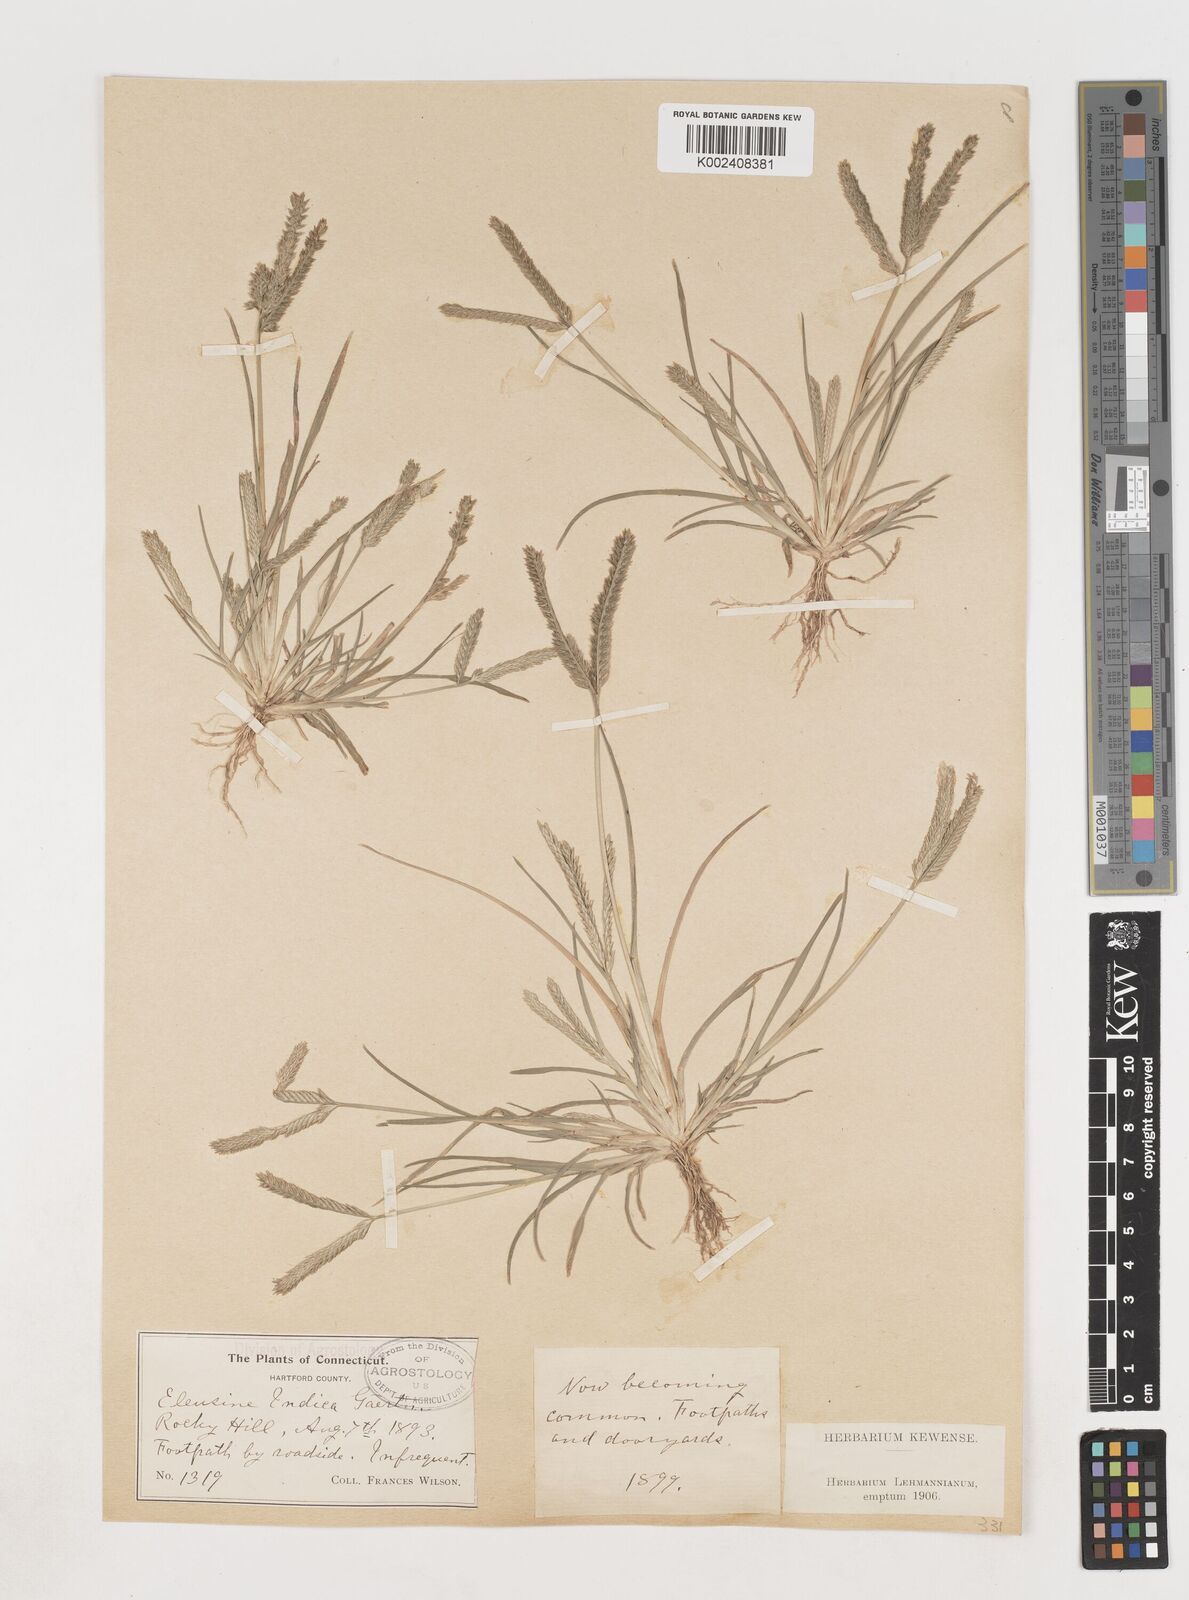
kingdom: Plantae
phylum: Tracheophyta
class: Liliopsida
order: Poales
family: Poaceae
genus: Eleusine
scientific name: Eleusine indica
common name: Yard-grass
